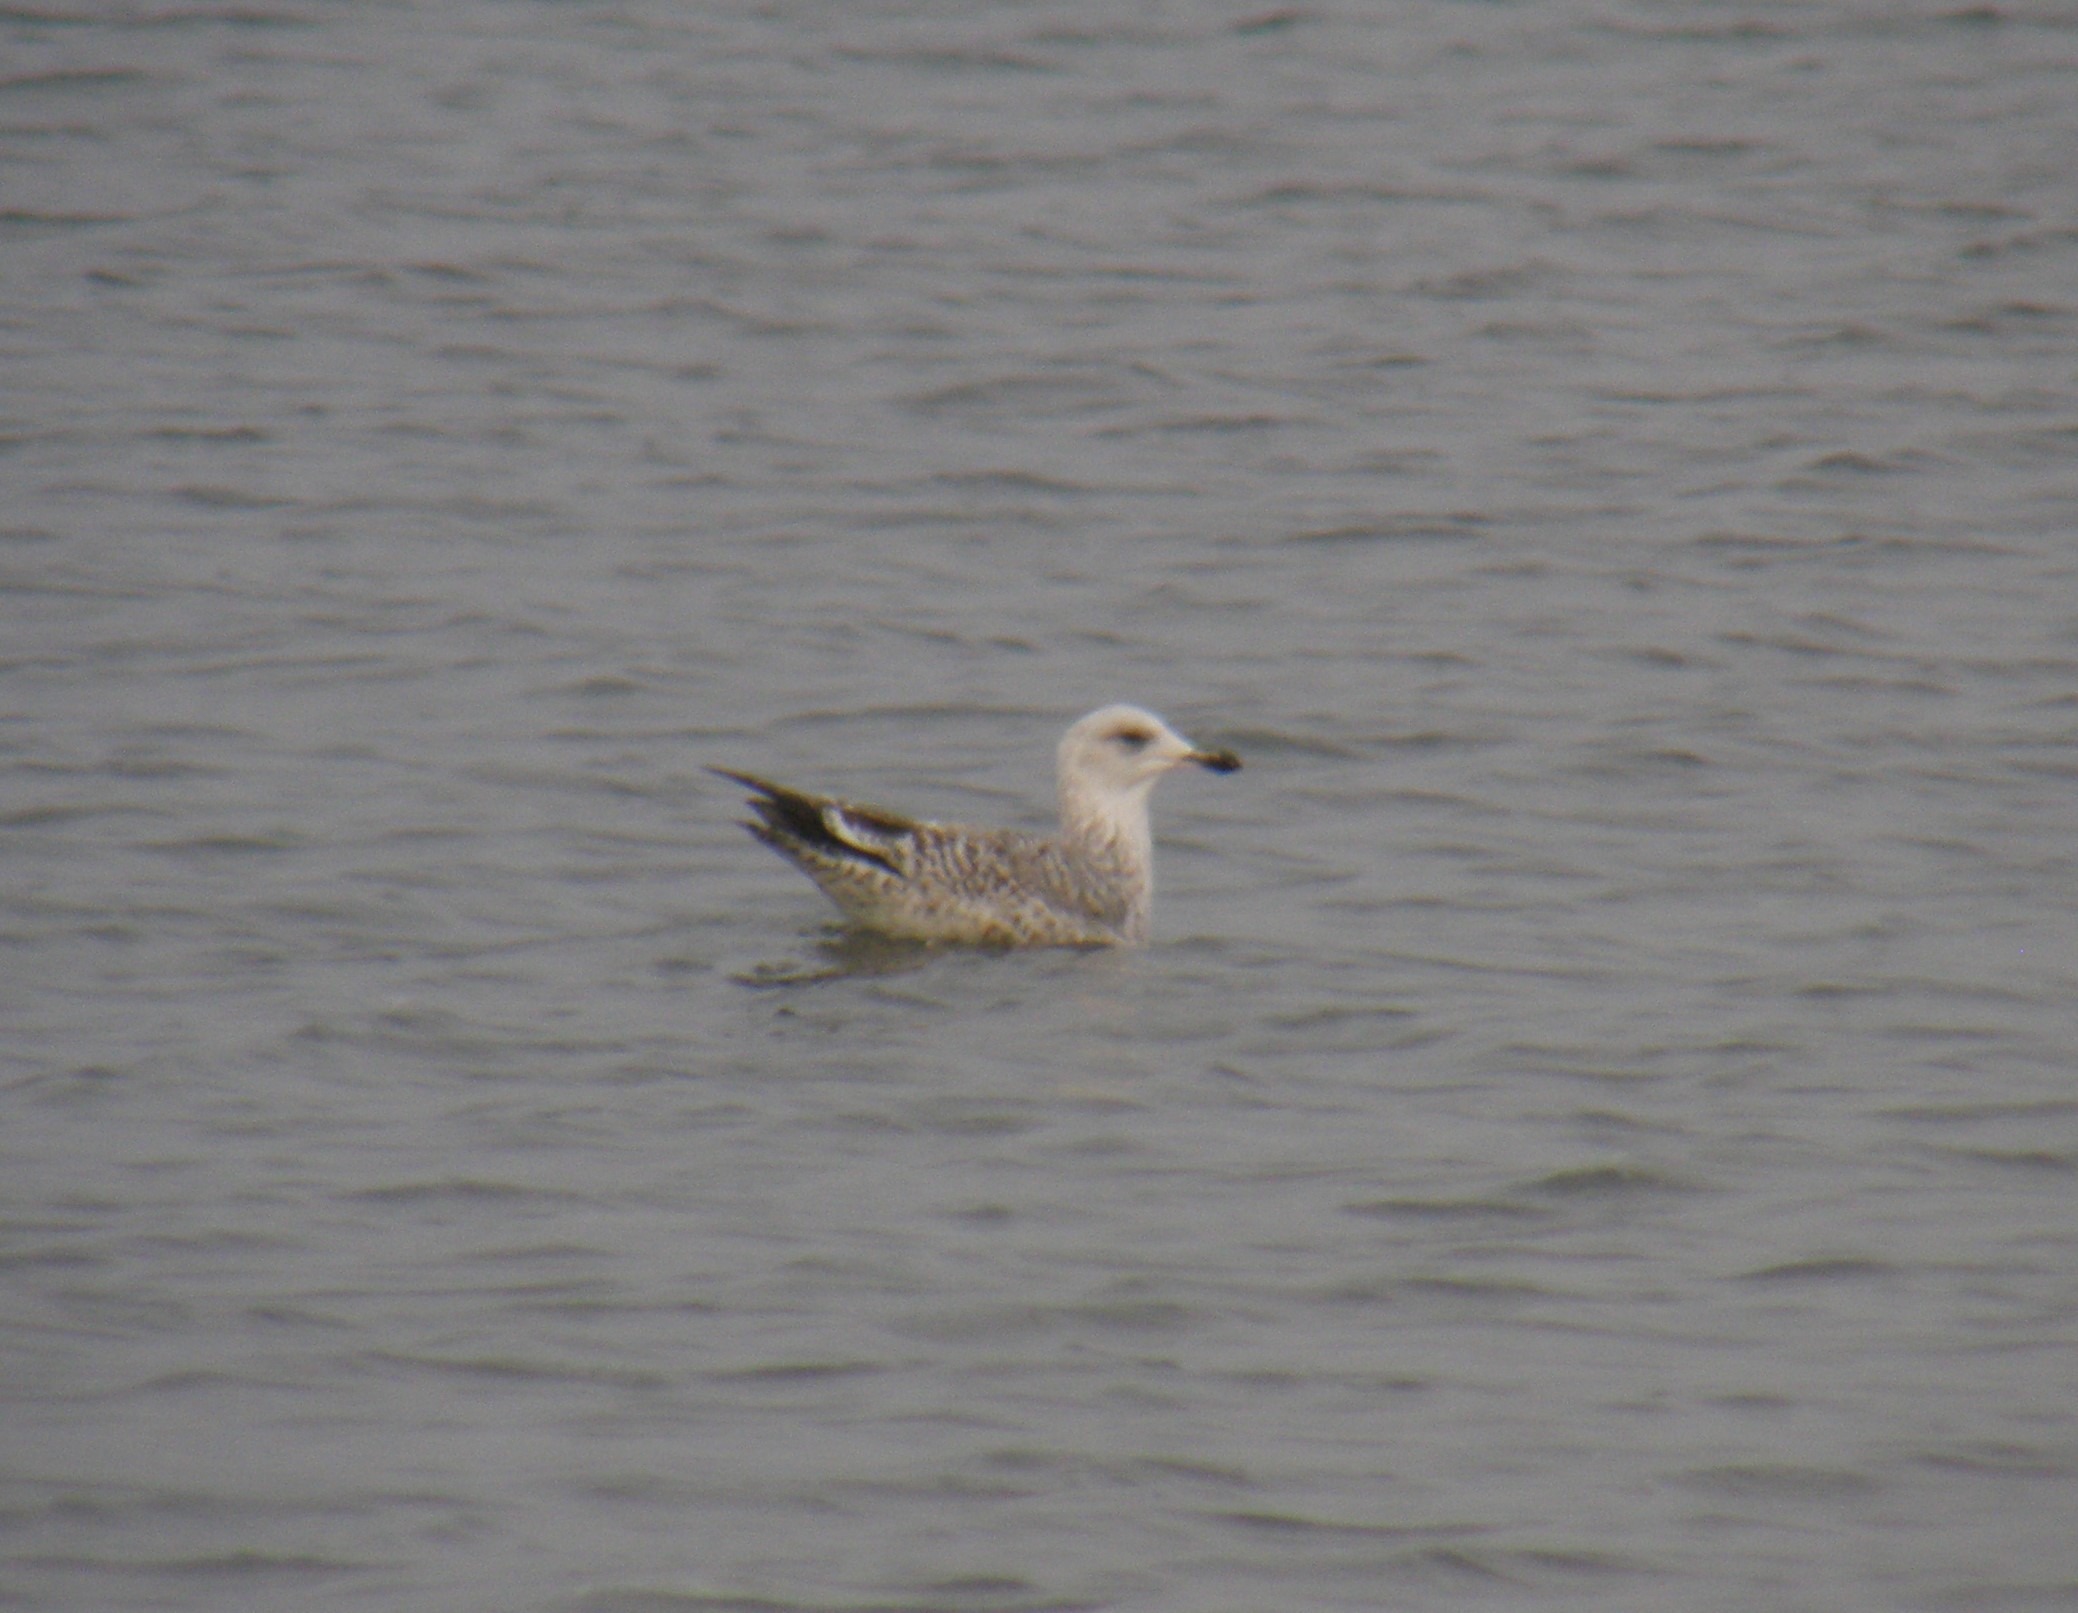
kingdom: Animalia
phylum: Chordata
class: Aves
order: Charadriiformes
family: Laridae
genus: Larus
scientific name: Larus argentatus
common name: Sølvmåge
